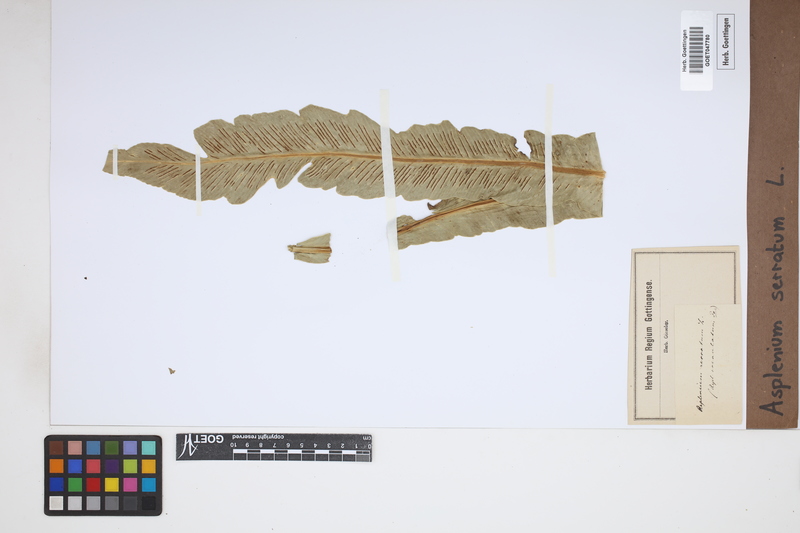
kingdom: Plantae
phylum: Tracheophyta
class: Polypodiopsida
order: Polypodiales
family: Aspleniaceae
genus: Asplenium
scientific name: Asplenium serratum
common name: Wild birdnest fern
